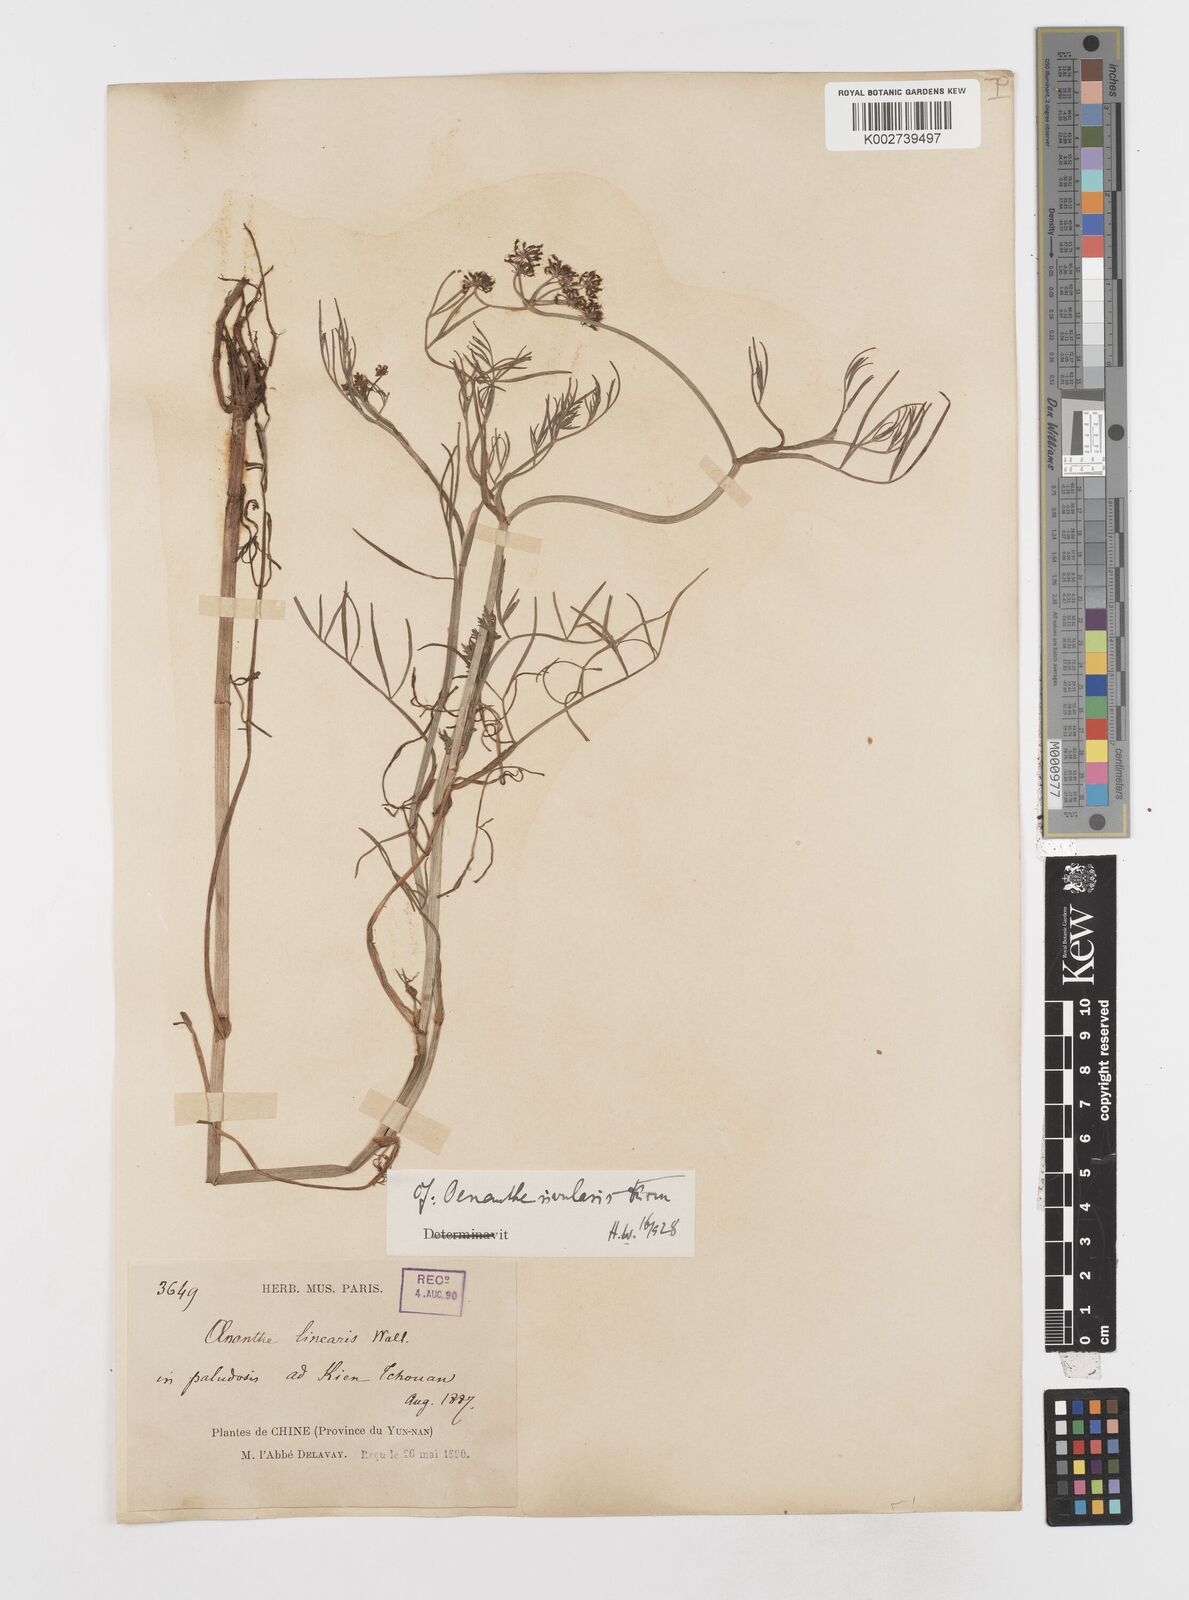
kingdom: Plantae
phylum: Tracheophyta
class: Magnoliopsida
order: Apiales
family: Apiaceae
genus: Oenanthe
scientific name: Oenanthe linearis
